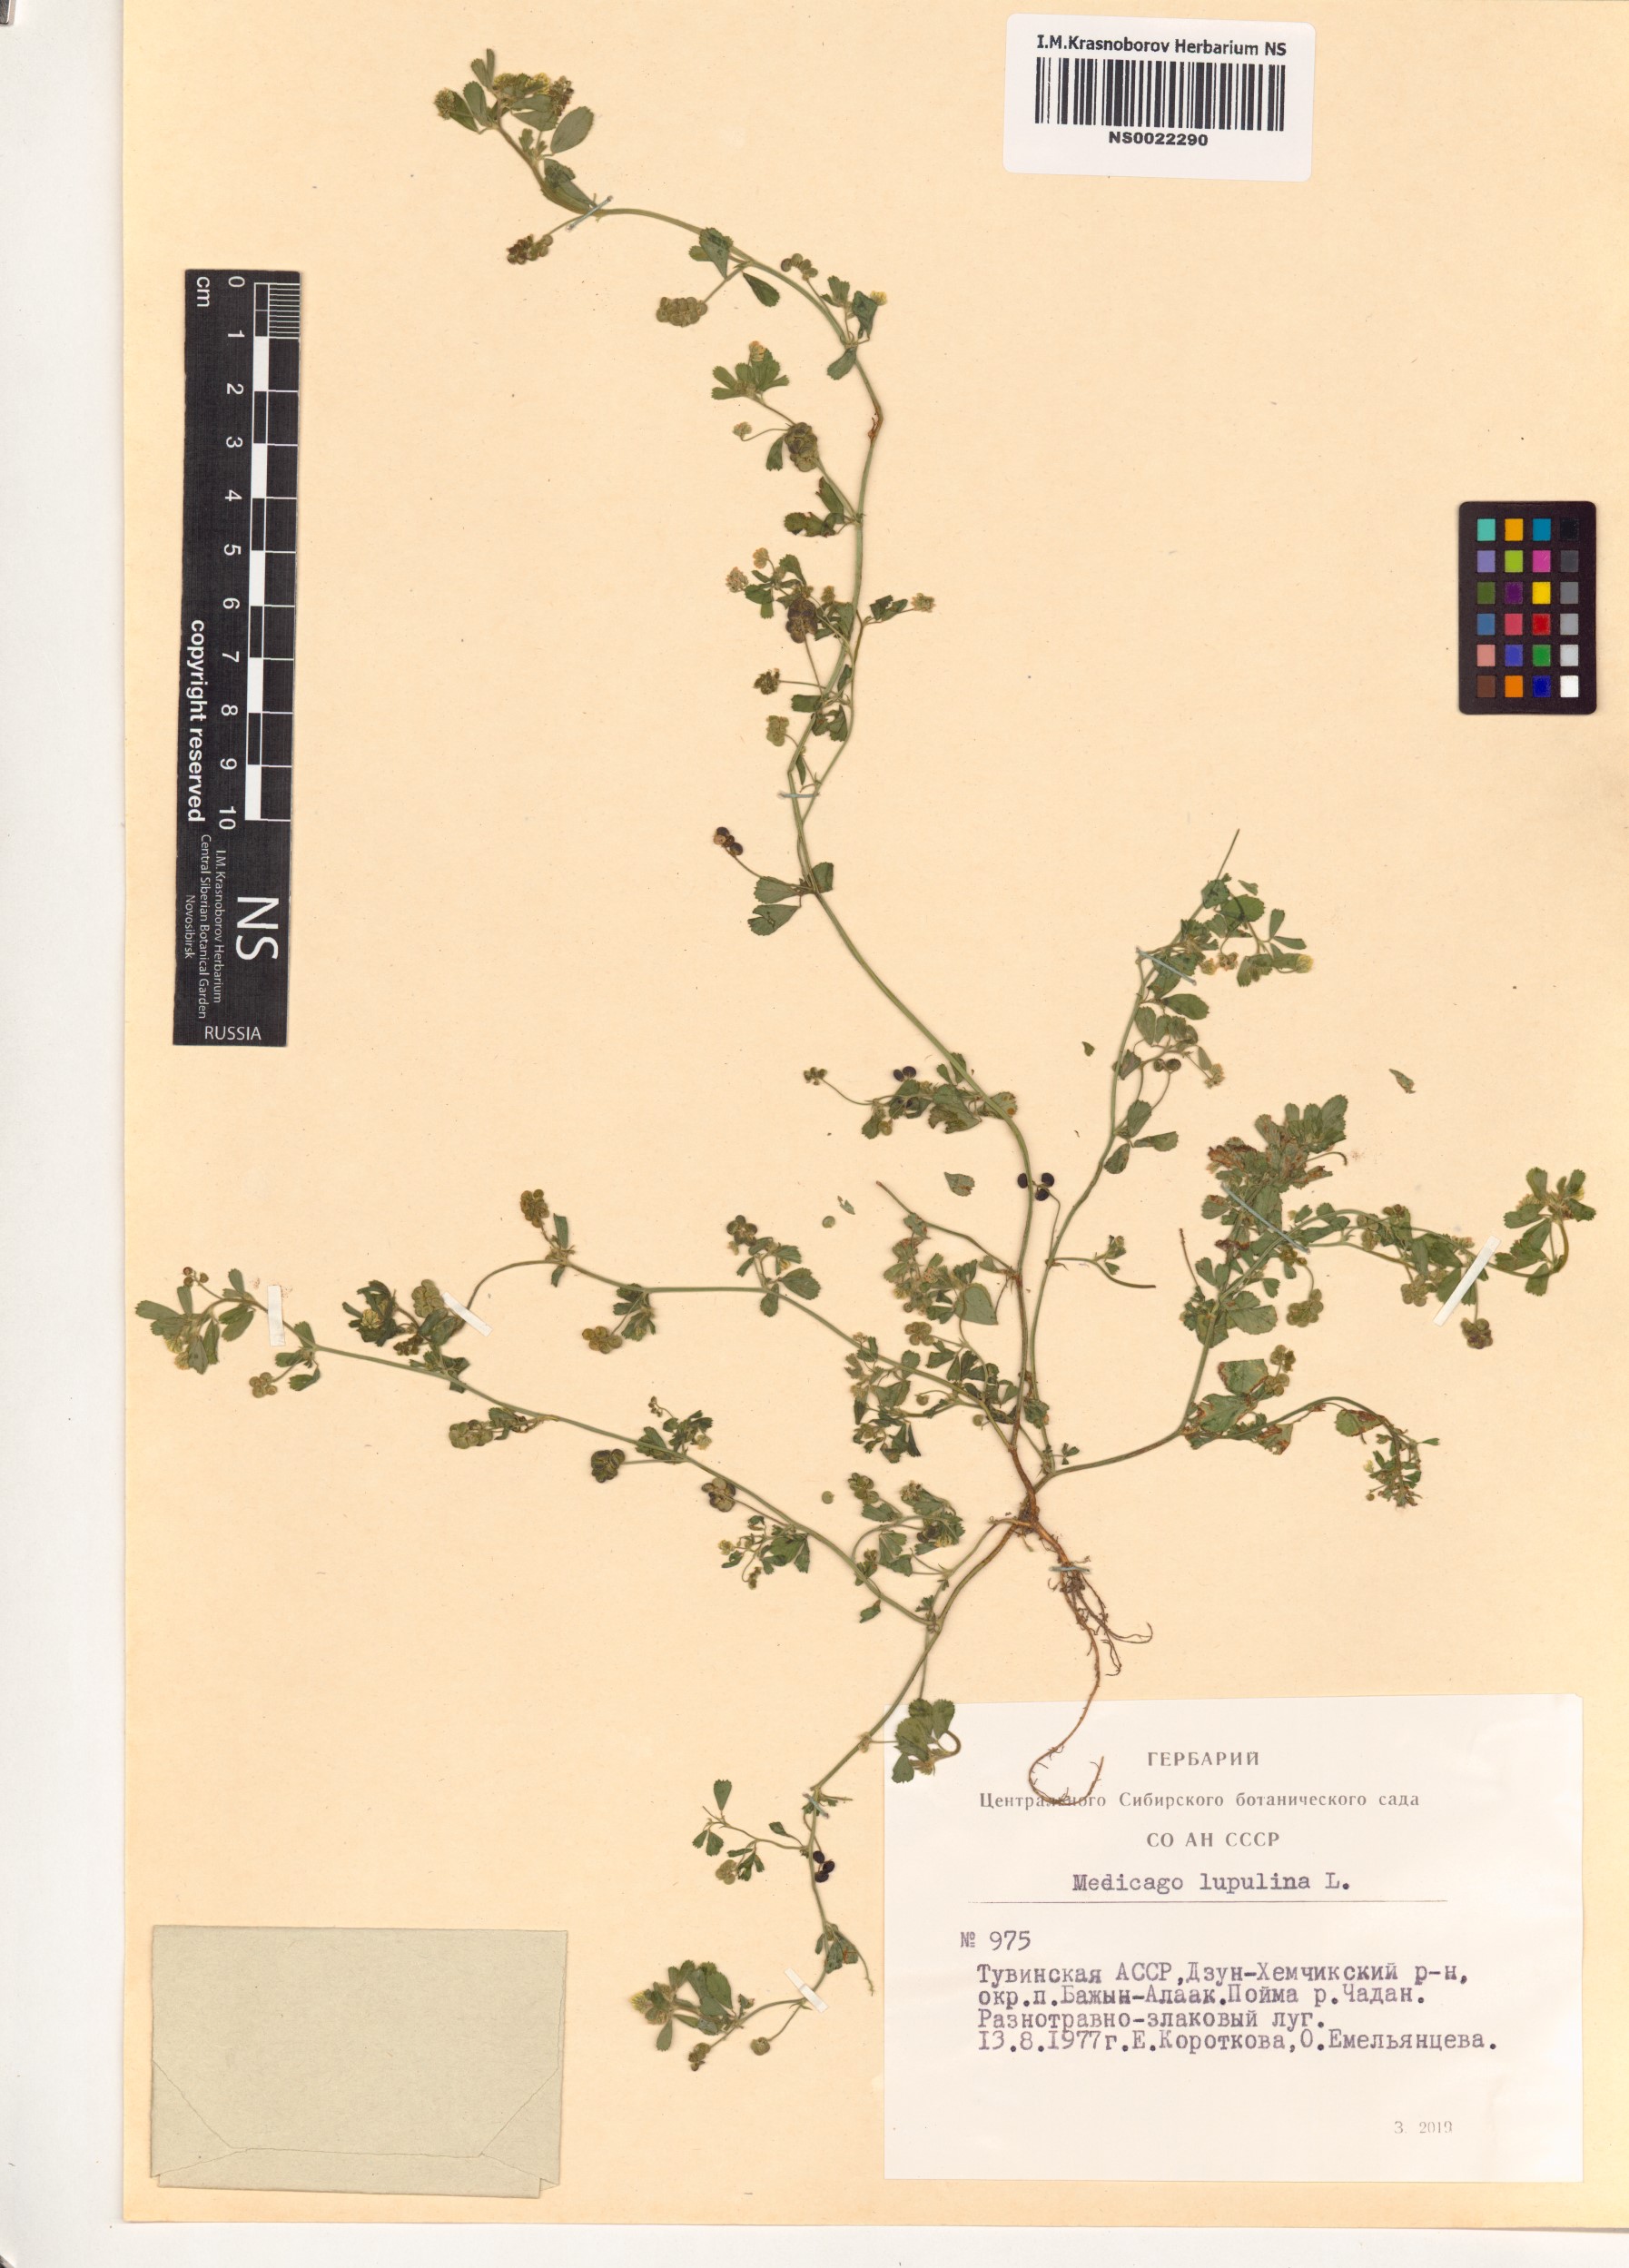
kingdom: Plantae
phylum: Tracheophyta
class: Magnoliopsida
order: Fabales
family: Fabaceae
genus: Medicago
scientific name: Medicago lupulina
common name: Black medick
